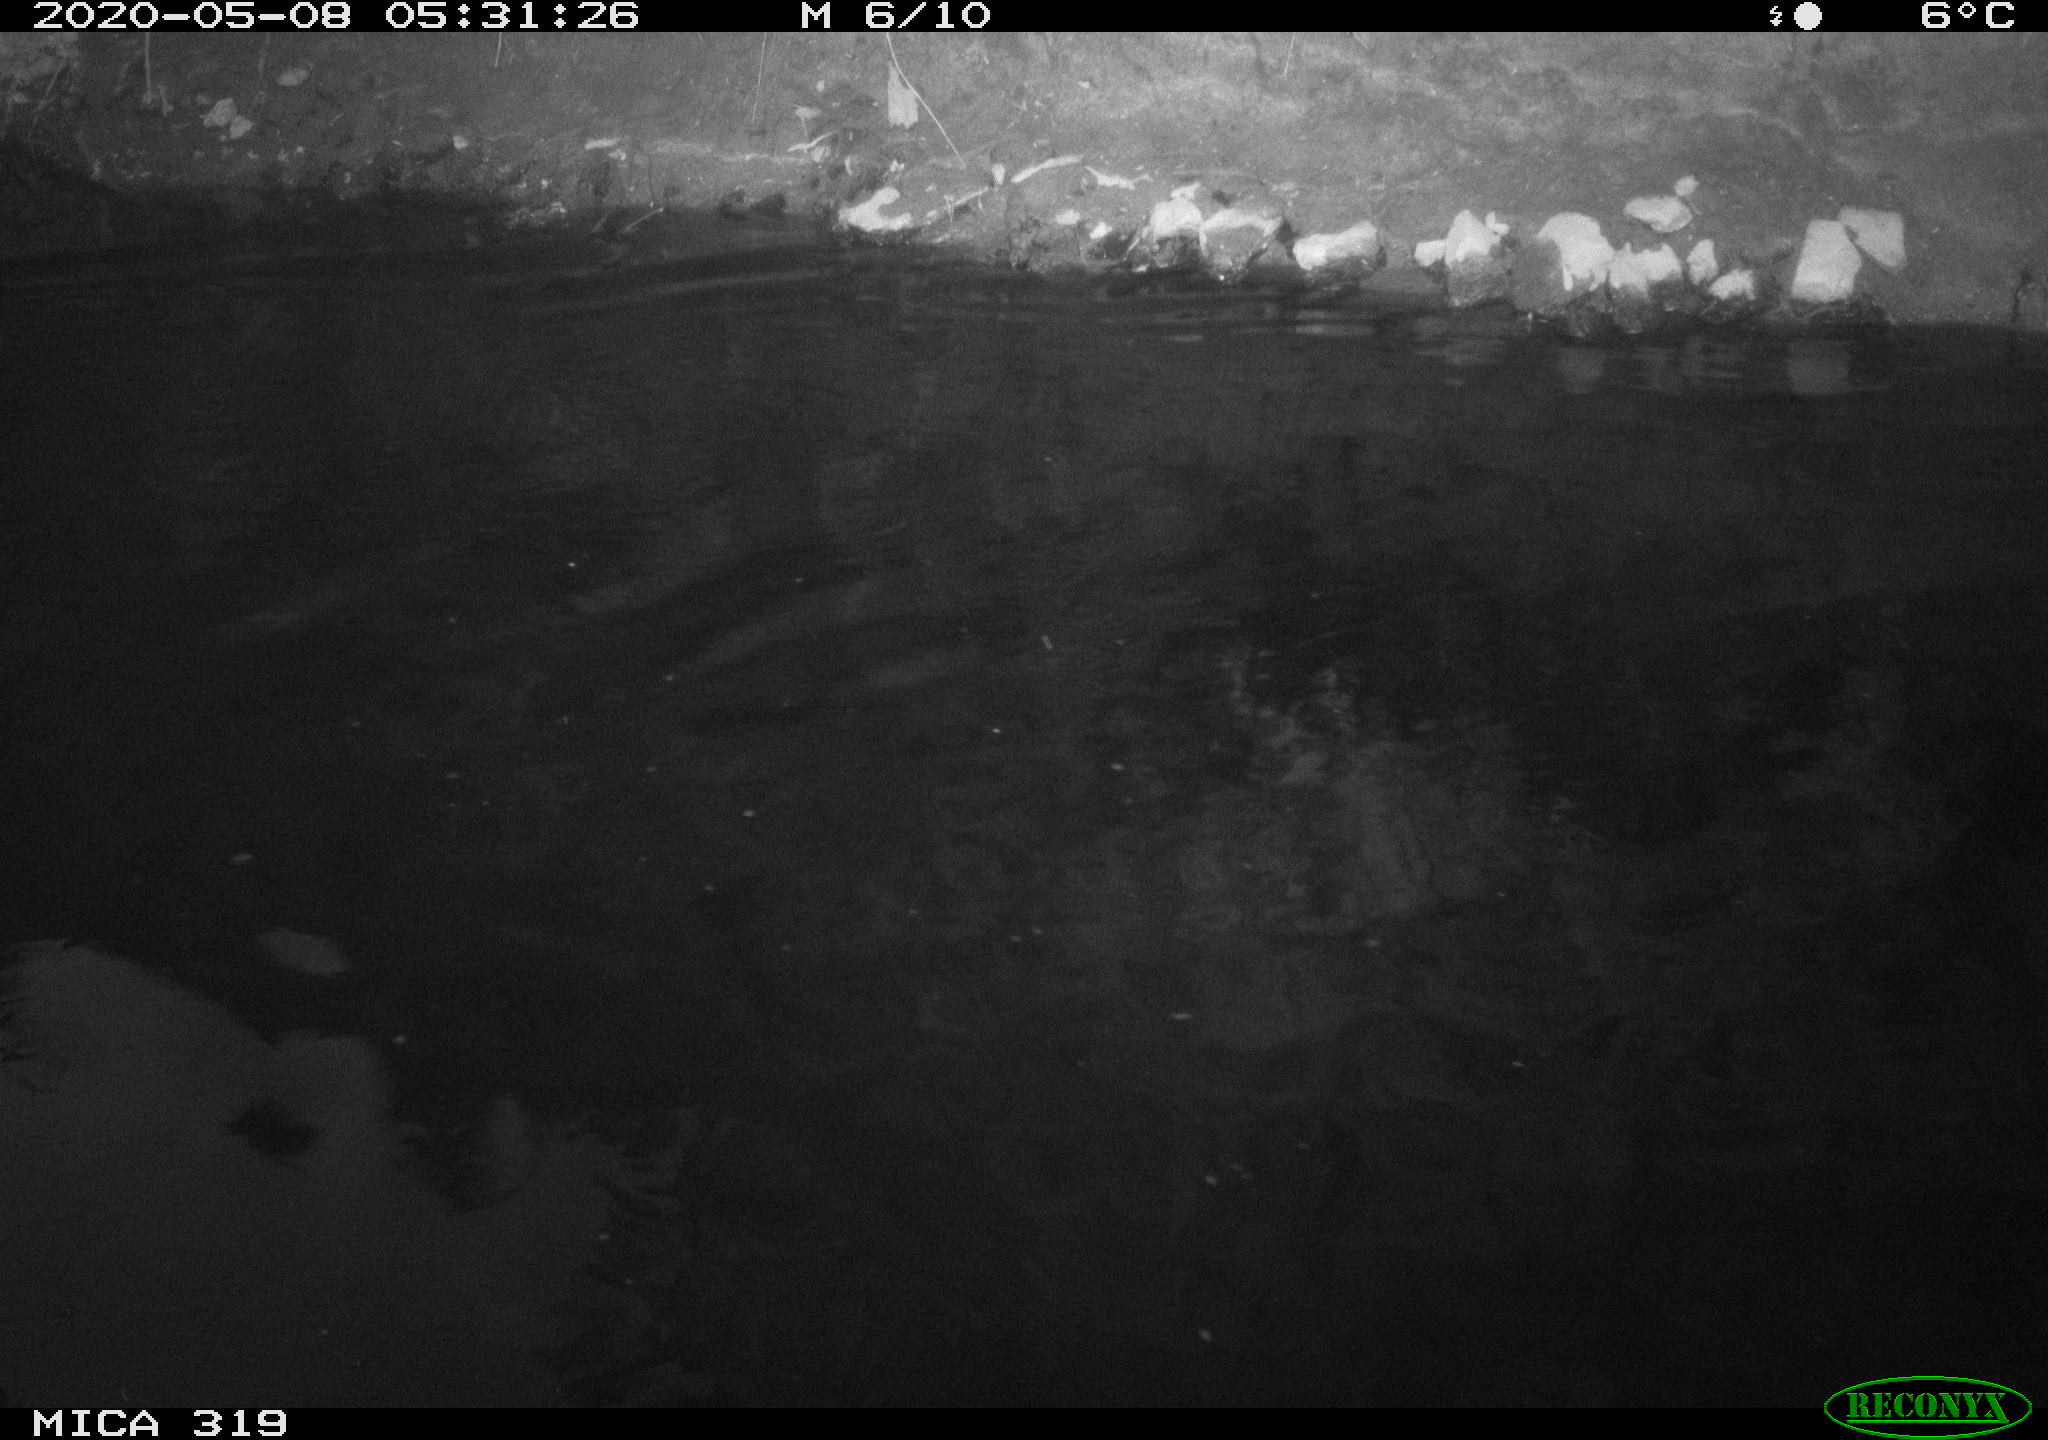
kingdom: Animalia
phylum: Chordata
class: Aves
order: Anseriformes
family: Anatidae
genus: Anas
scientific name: Anas platyrhynchos
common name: Mallard
